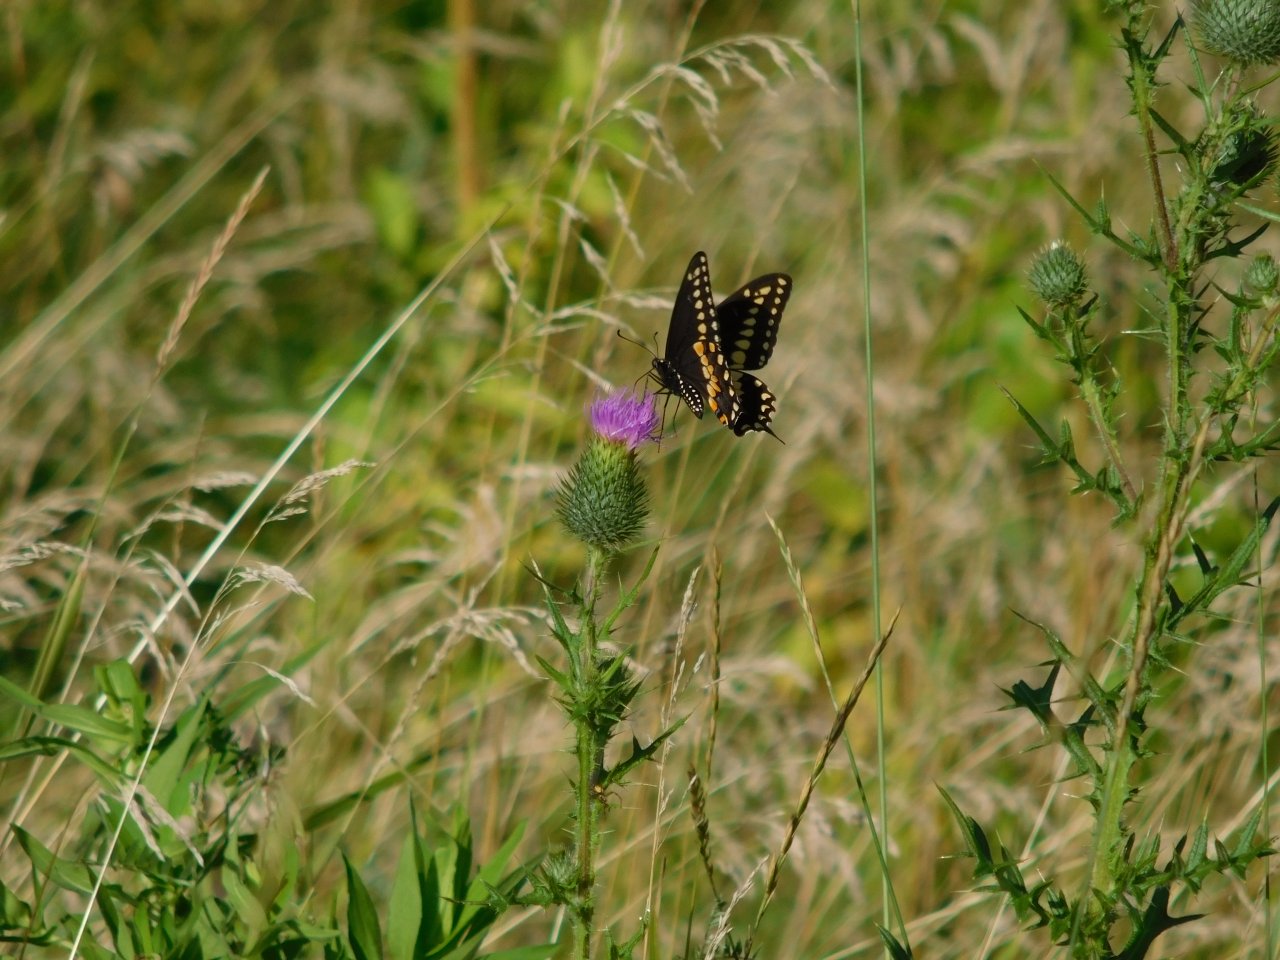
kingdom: Animalia
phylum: Arthropoda
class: Insecta
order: Lepidoptera
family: Papilionidae
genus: Papilio
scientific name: Papilio polyxenes
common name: Black Swallowtail
